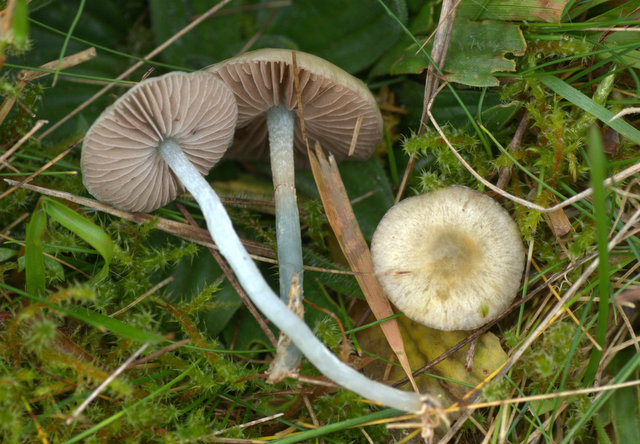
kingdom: Fungi
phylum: Basidiomycota
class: Agaricomycetes
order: Agaricales
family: Strophariaceae
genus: Stropharia
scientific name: Stropharia pseudocyanea
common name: blegblå bredblad
